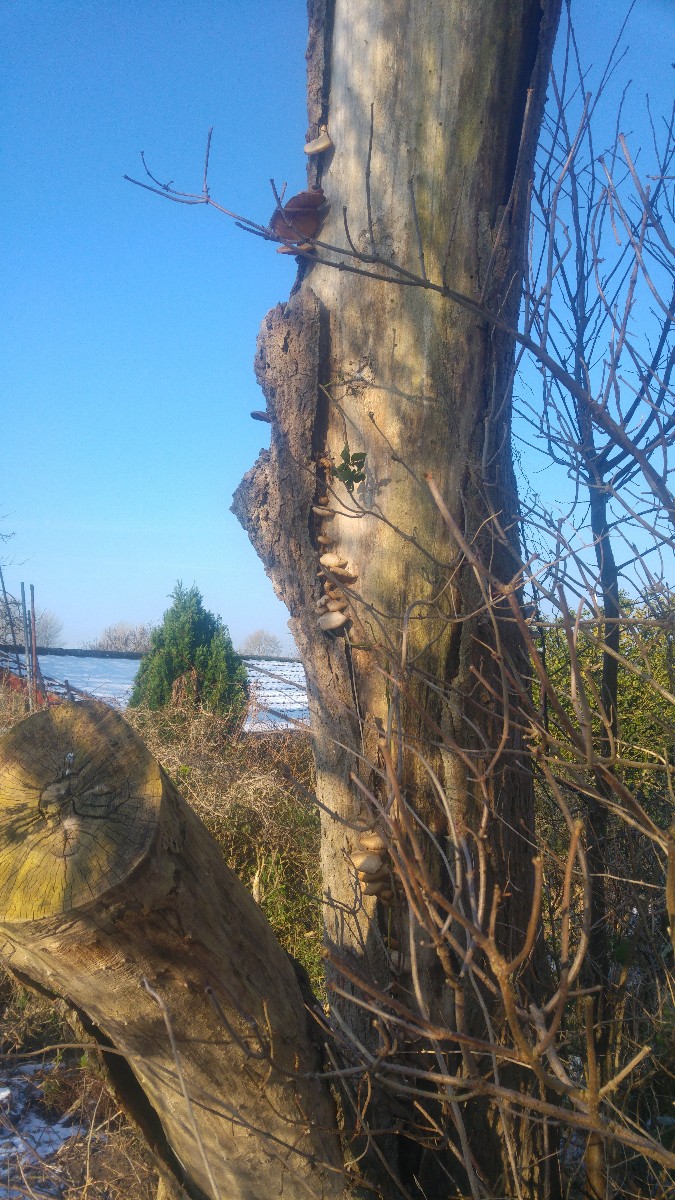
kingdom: Fungi
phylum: Basidiomycota
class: Agaricomycetes
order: Agaricales
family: Pleurotaceae
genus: Pleurotus
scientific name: Pleurotus ostreatus
